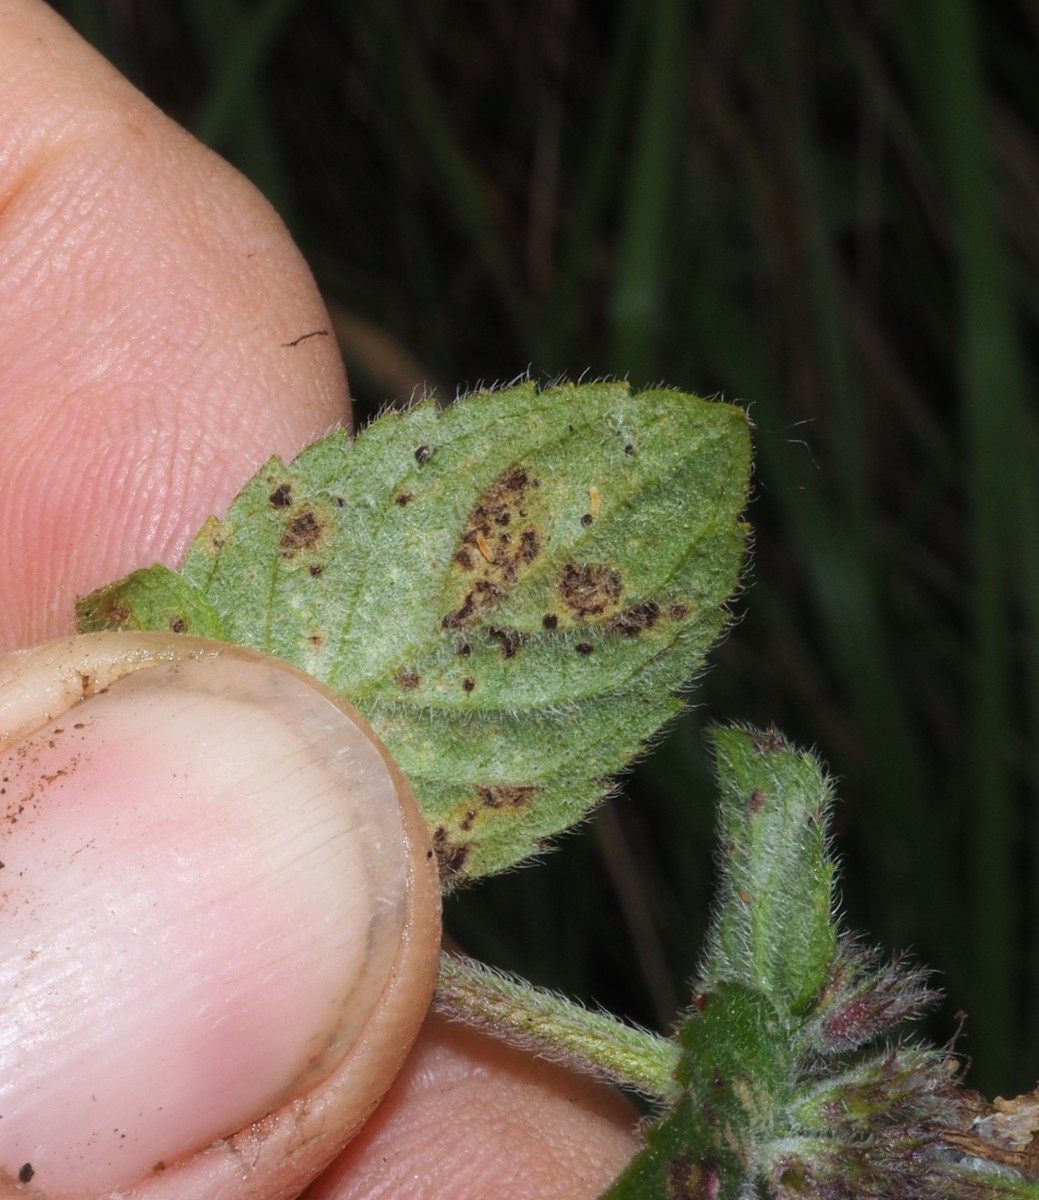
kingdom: Fungi
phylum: Basidiomycota
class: Pucciniomycetes
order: Pucciniales
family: Pucciniaceae
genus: Puccinia
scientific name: Puccinia menthae
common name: Mint rust
